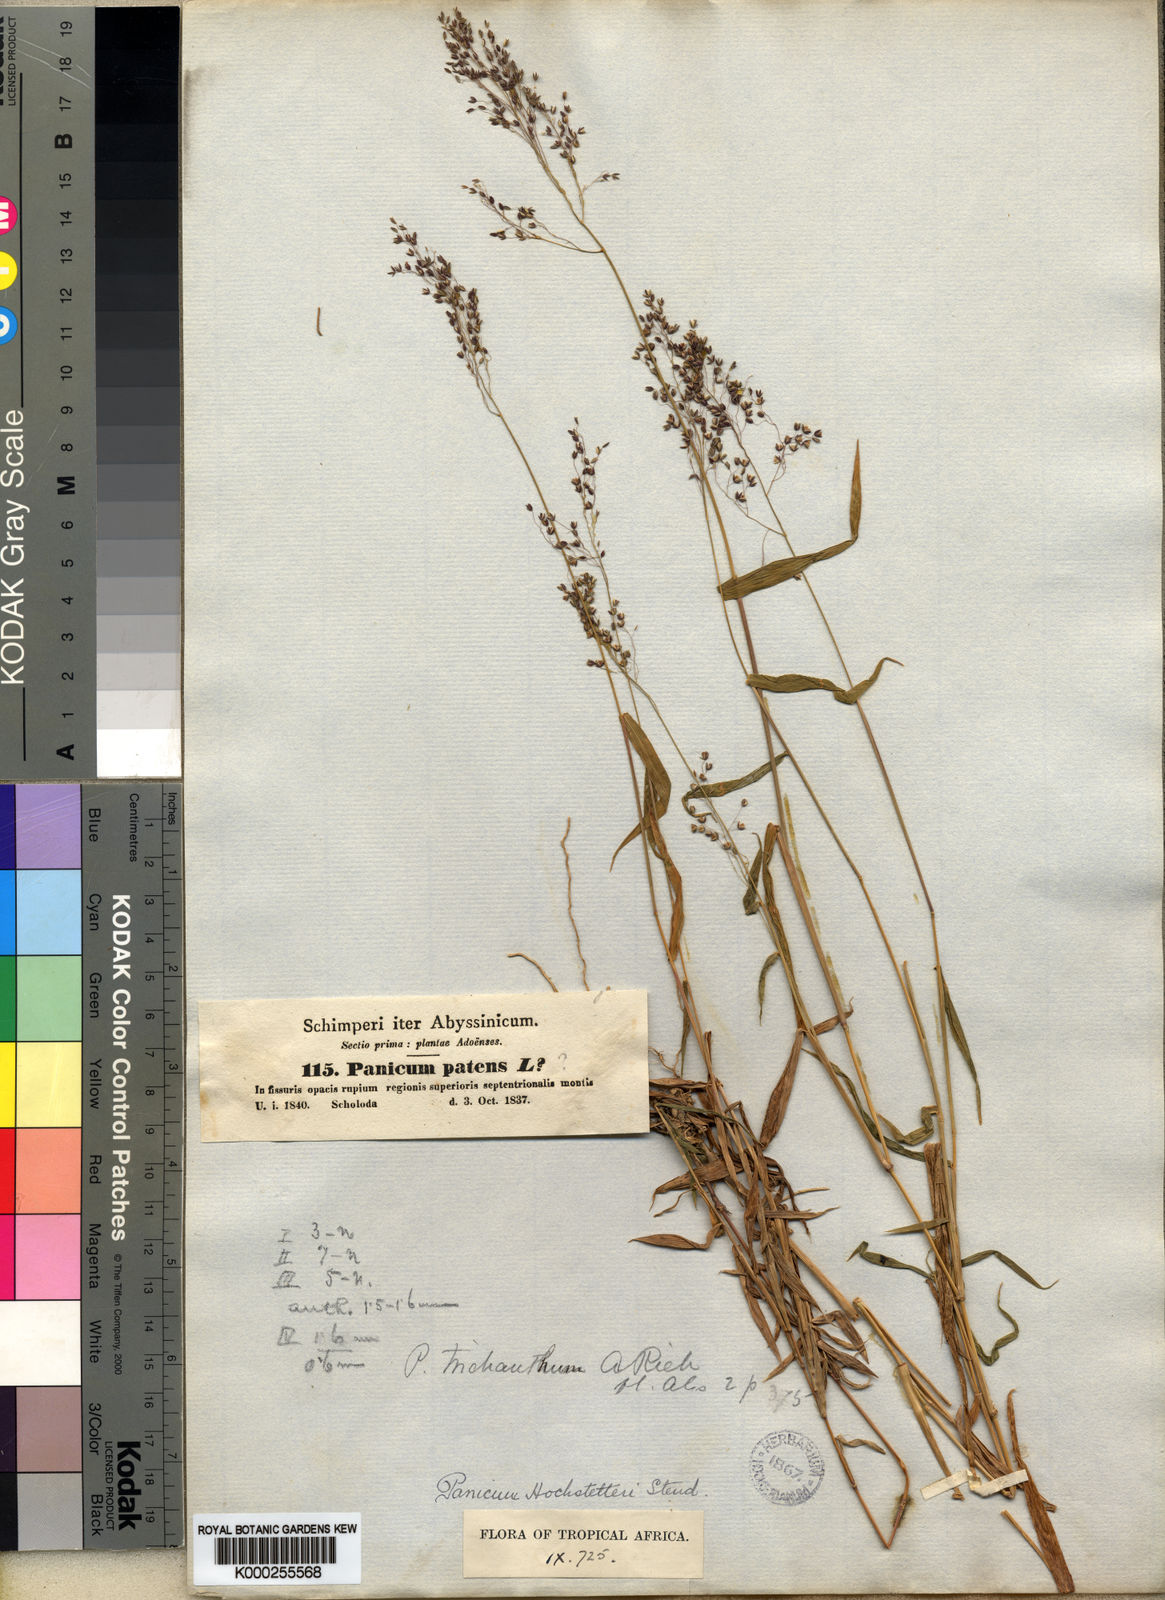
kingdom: Plantae
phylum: Tracheophyta
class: Liliopsida
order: Poales
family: Poaceae
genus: Panicum
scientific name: Panicum hochstetteri
